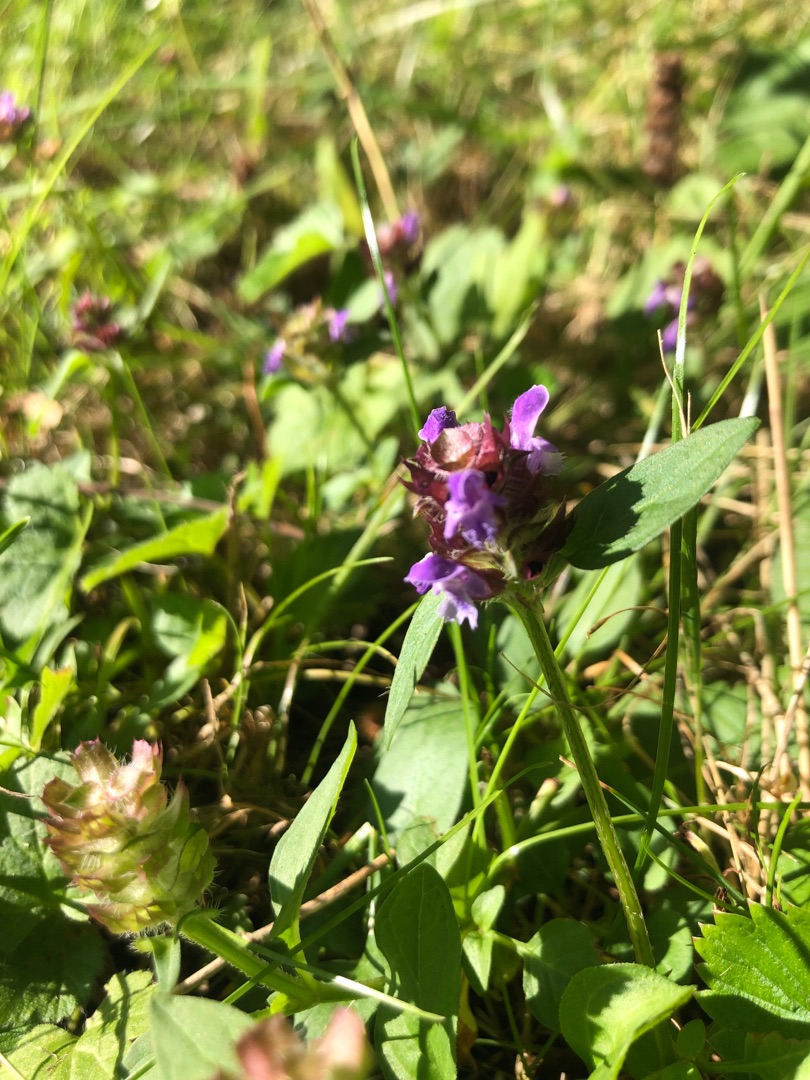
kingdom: Plantae
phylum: Tracheophyta
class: Magnoliopsida
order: Lamiales
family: Lamiaceae
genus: Prunella
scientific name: Prunella vulgaris
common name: Almindelig brunelle
